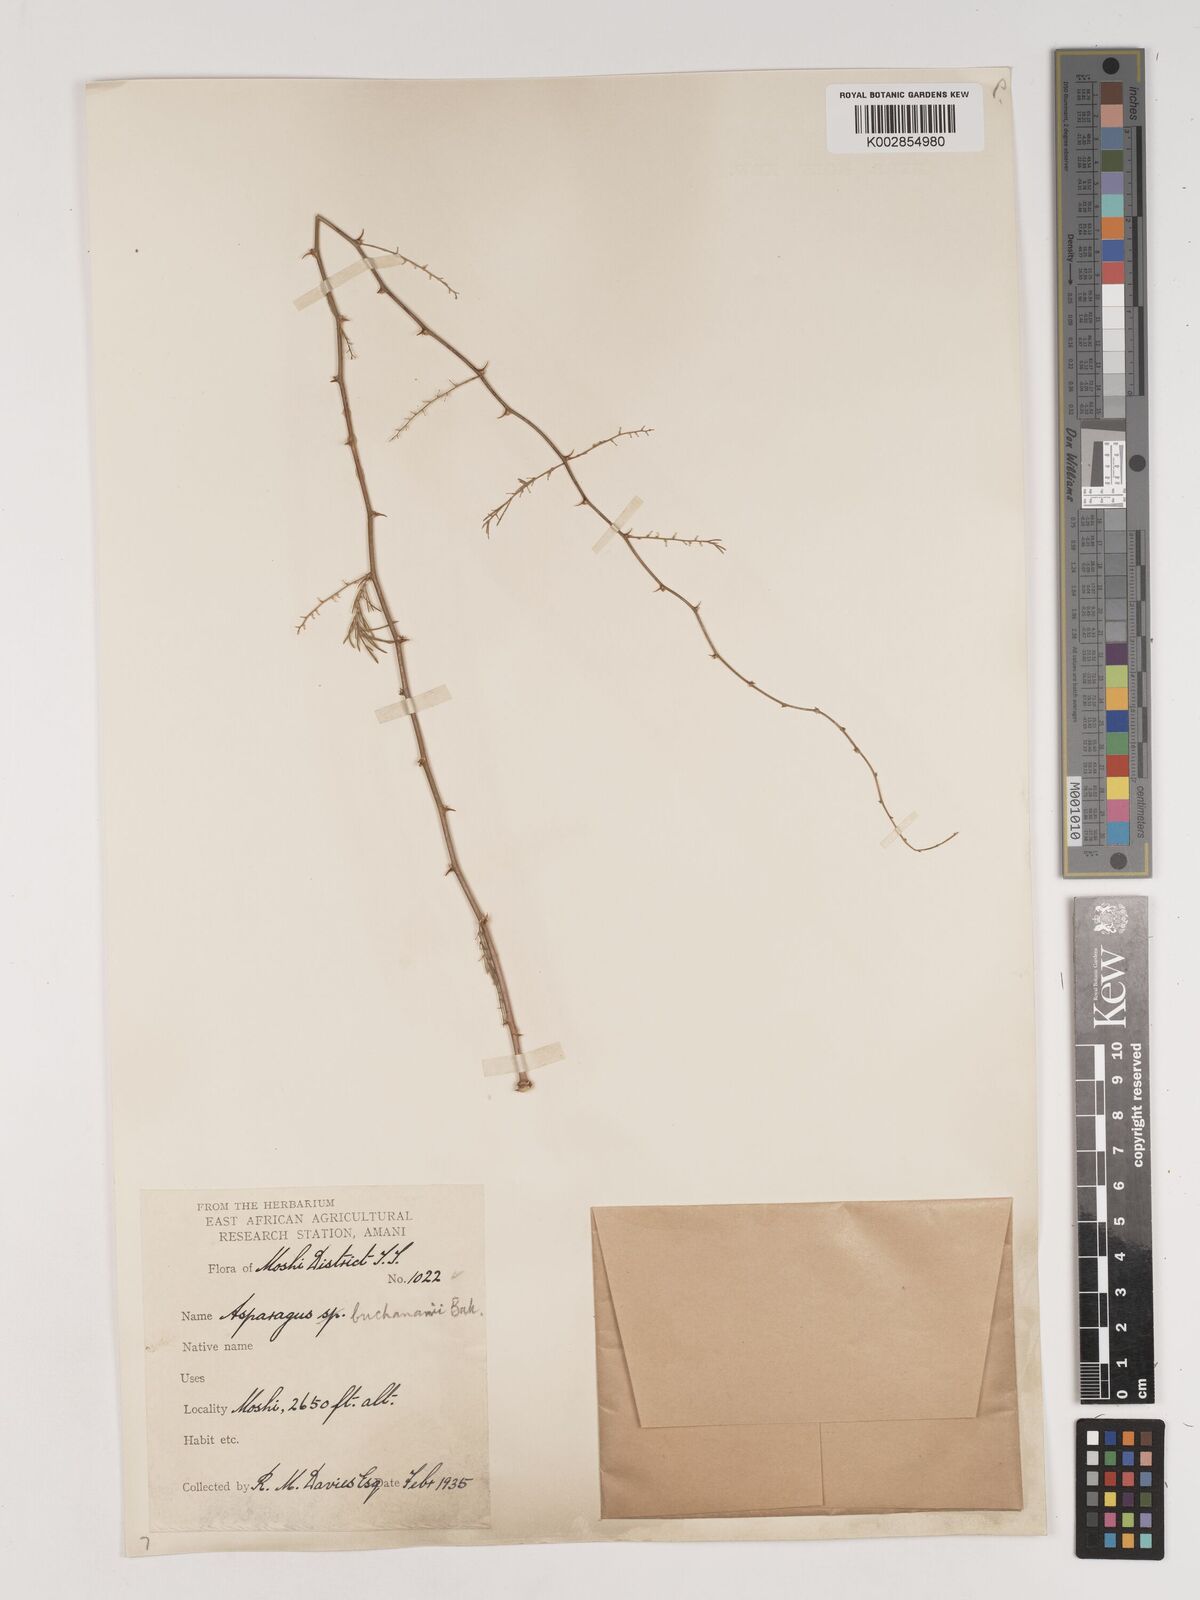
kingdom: Plantae
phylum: Tracheophyta
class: Liliopsida
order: Asparagales
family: Asparagaceae
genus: Asparagus
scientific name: Asparagus buchananii
